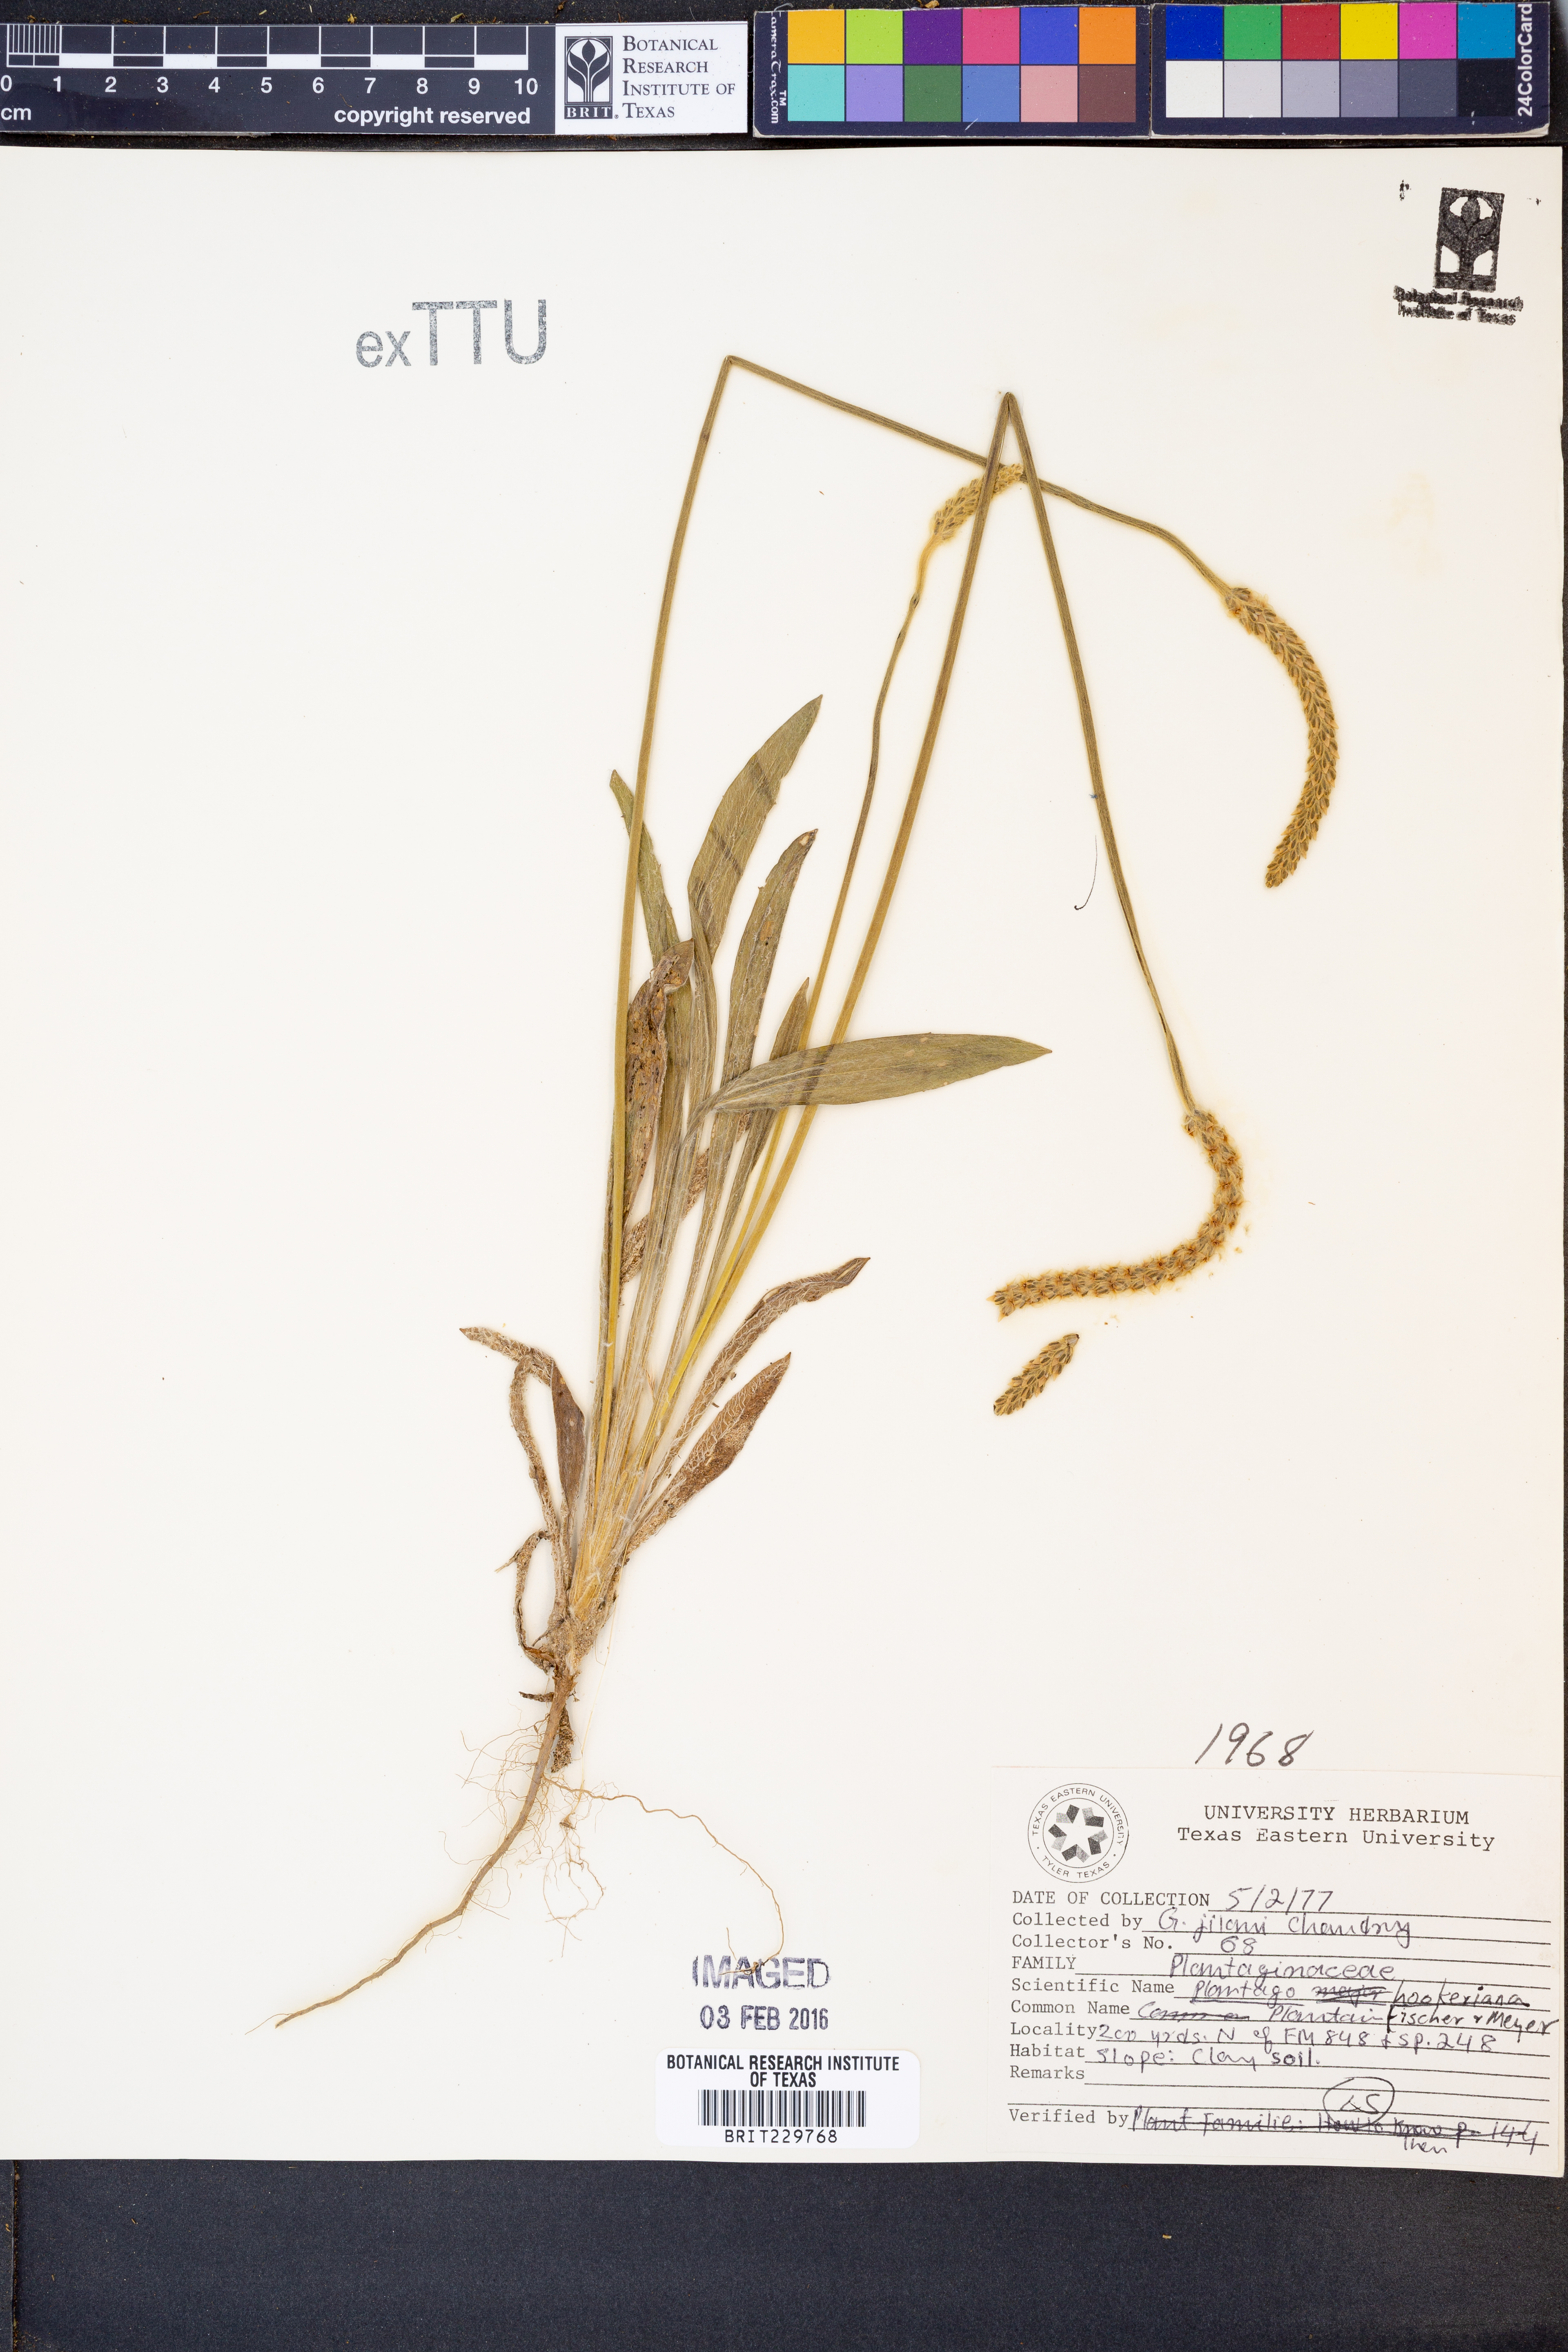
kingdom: Plantae
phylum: Tracheophyta
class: Magnoliopsida
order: Lamiales
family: Plantaginaceae
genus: Plantago
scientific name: Plantago hookeriana
